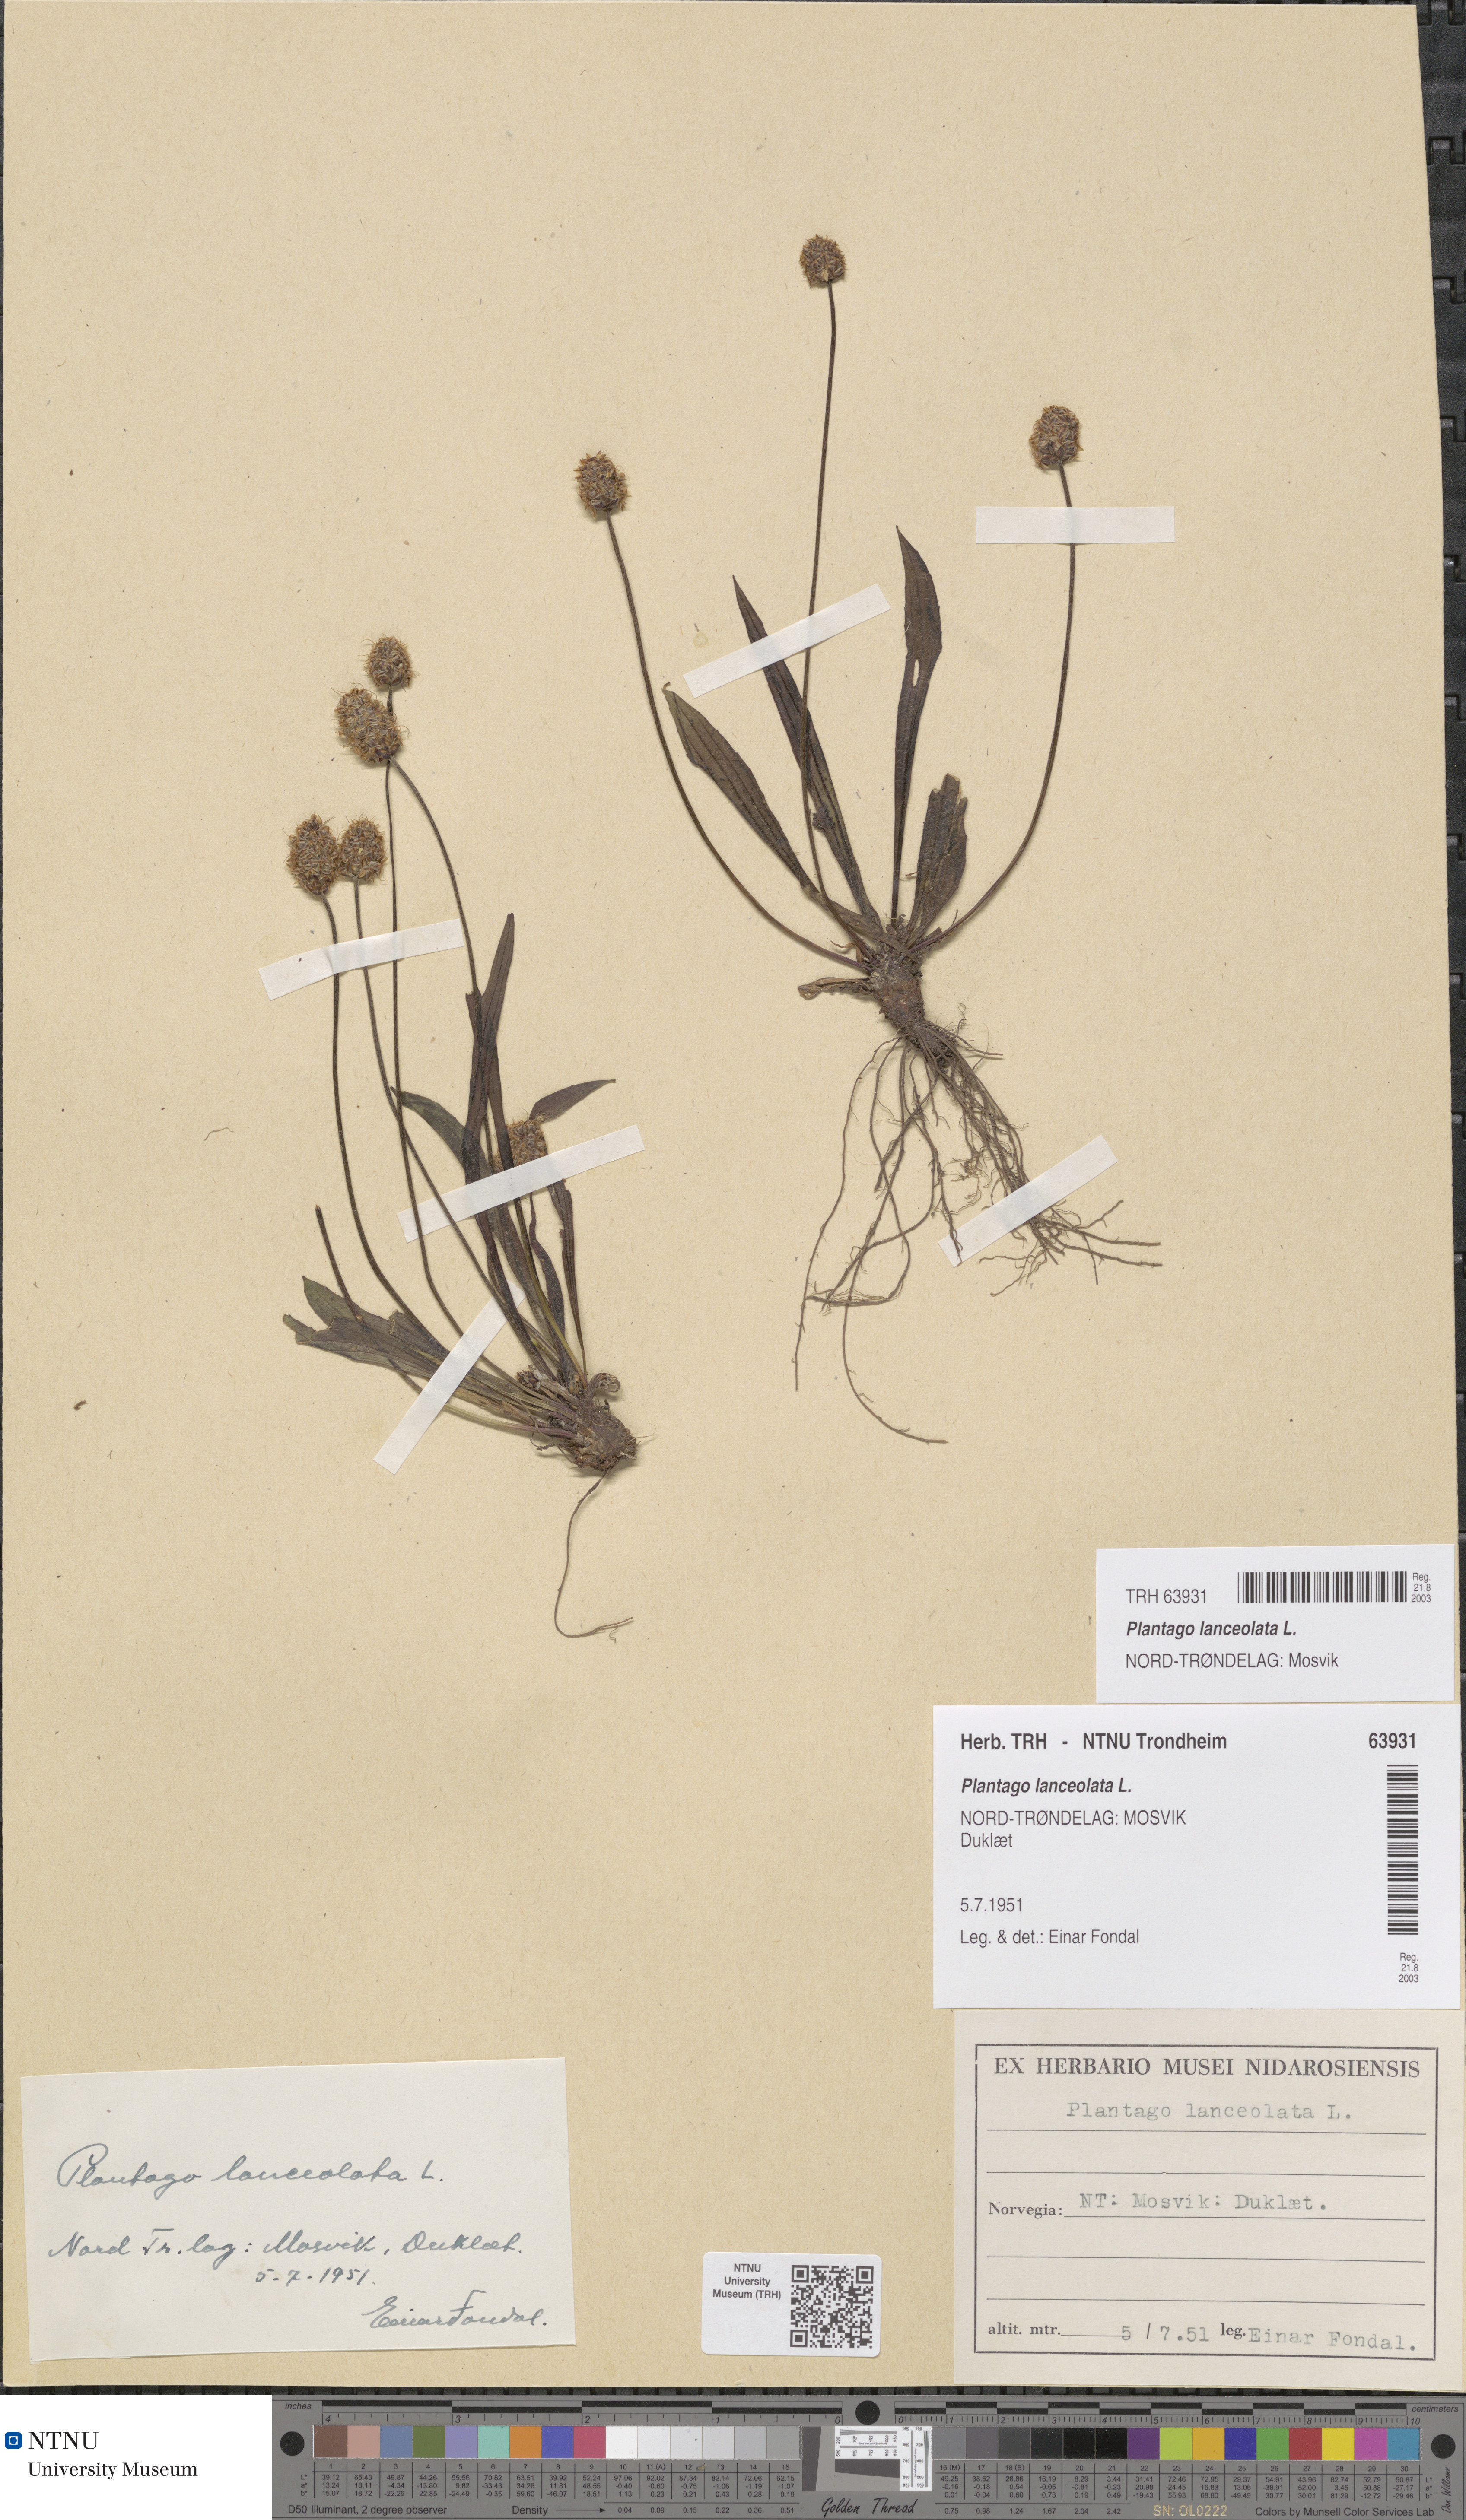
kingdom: Plantae
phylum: Tracheophyta
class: Magnoliopsida
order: Lamiales
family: Plantaginaceae
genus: Plantago
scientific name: Plantago lanceolata
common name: Ribwort plantain
